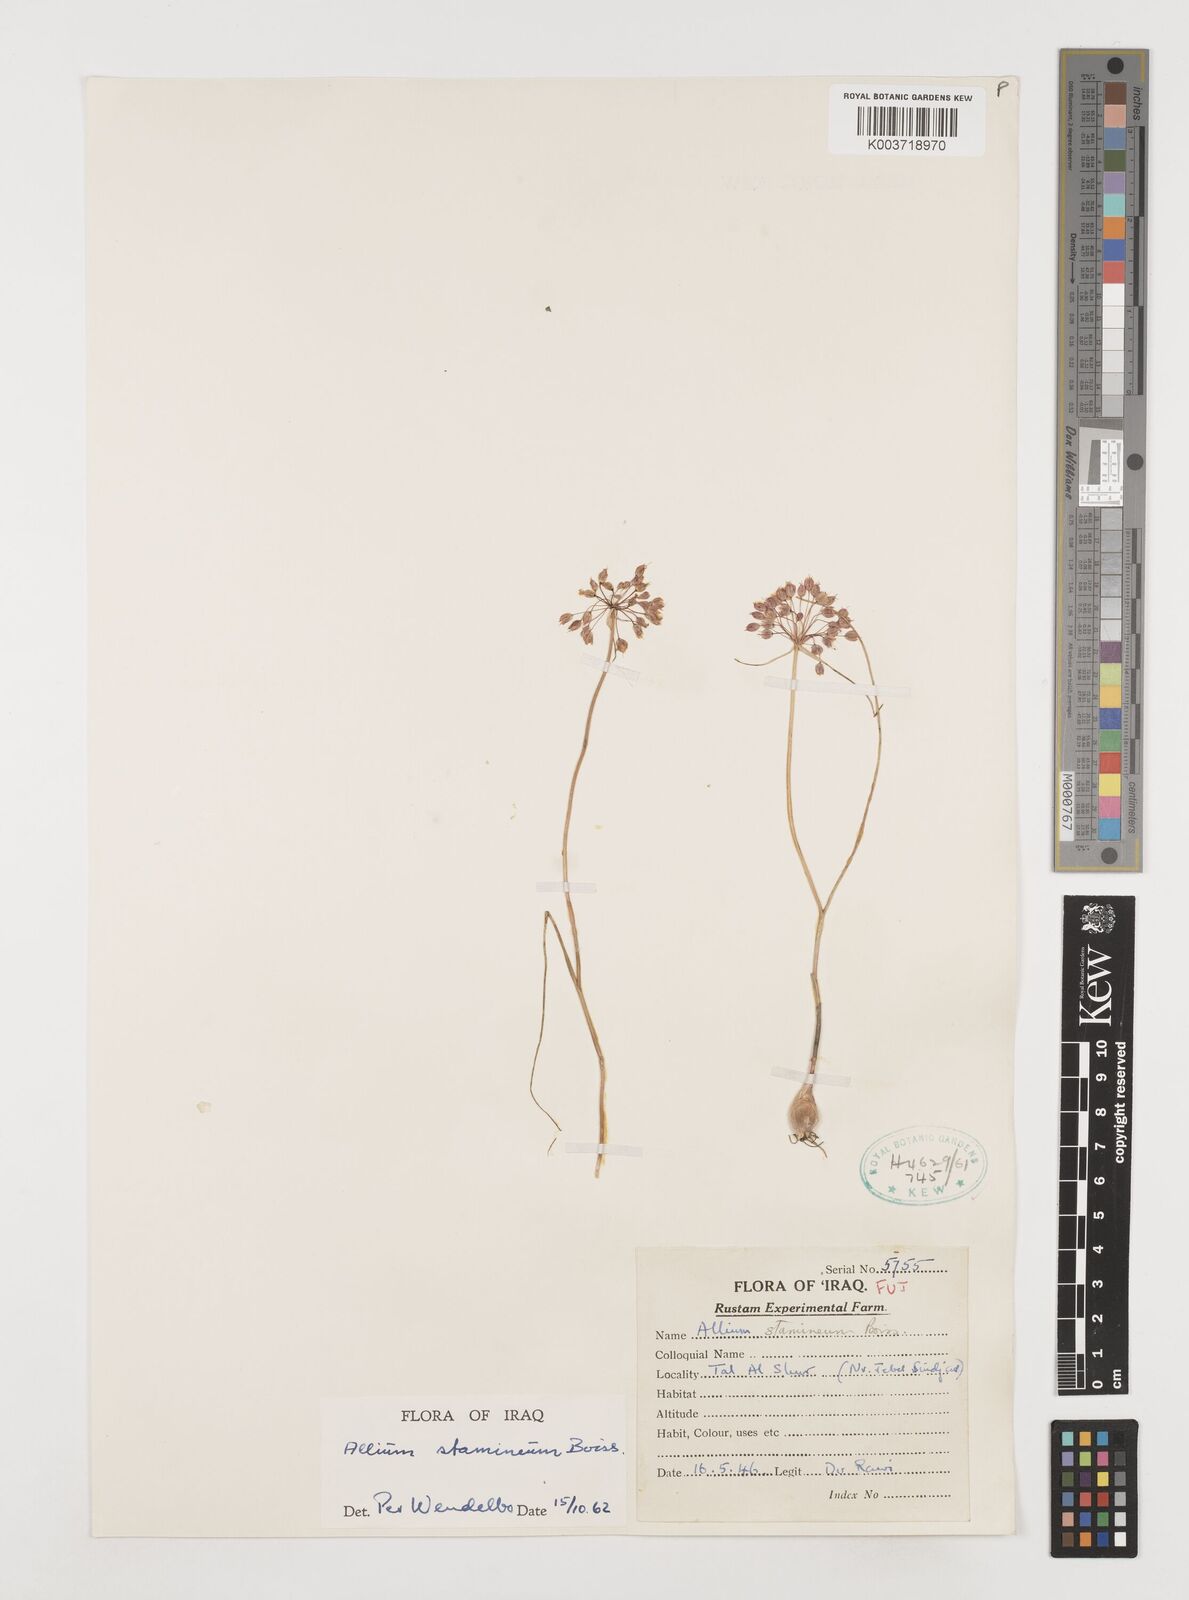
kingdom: Plantae
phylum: Tracheophyta
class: Liliopsida
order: Asparagales
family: Amaryllidaceae
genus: Allium
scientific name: Allium stamineum
